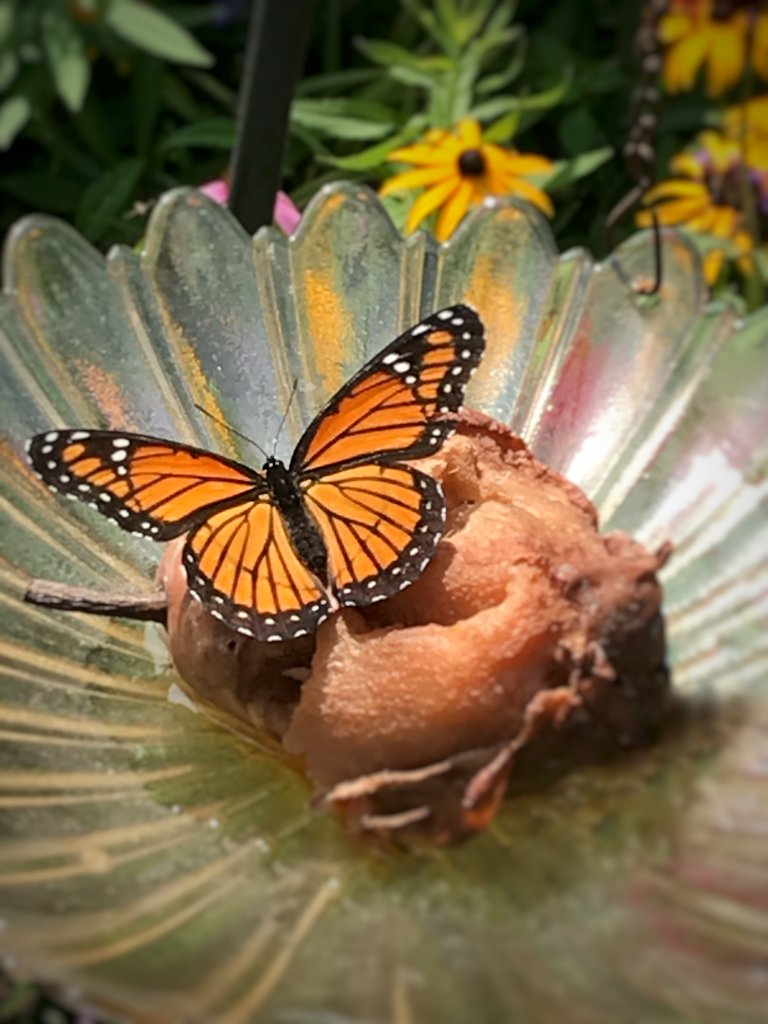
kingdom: Animalia
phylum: Arthropoda
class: Insecta
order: Lepidoptera
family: Nymphalidae
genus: Limenitis
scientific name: Limenitis archippus
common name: Viceroy
